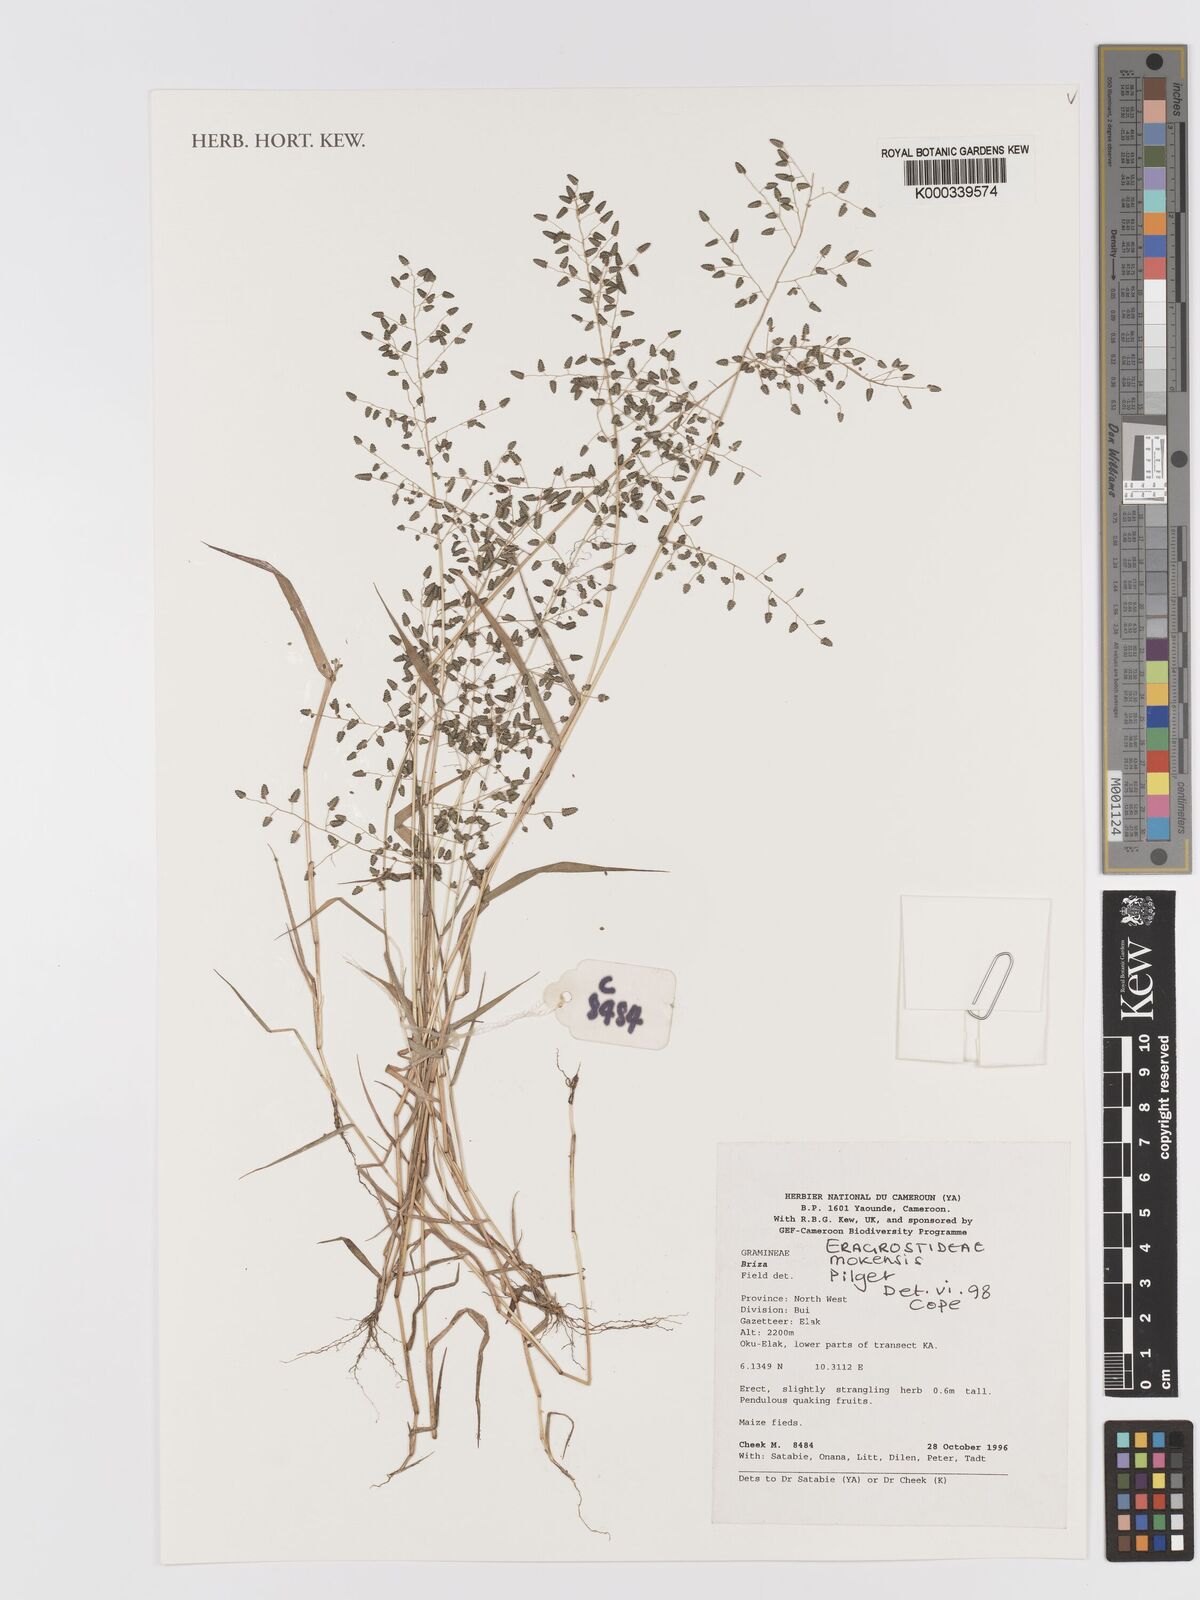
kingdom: Plantae
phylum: Tracheophyta
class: Liliopsida
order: Poales
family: Poaceae
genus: Eragrostis
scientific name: Eragrostis mokensis
